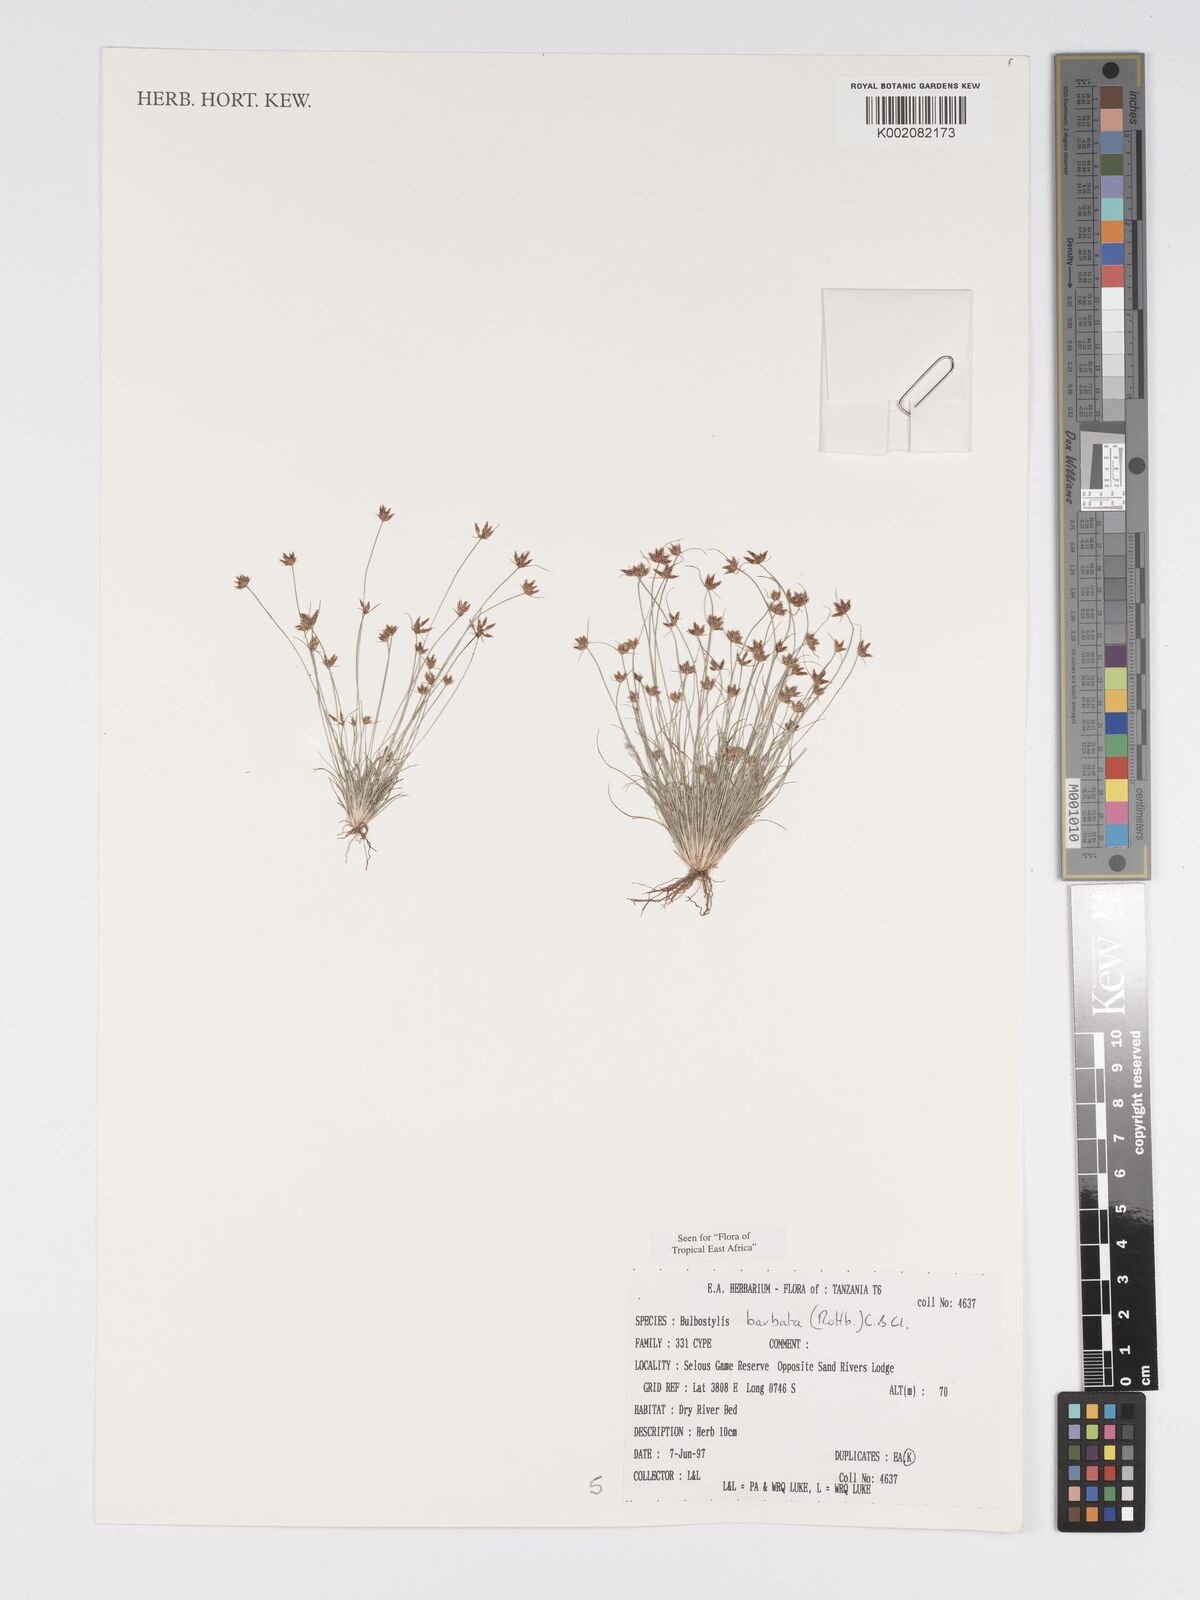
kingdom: Plantae
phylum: Tracheophyta
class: Liliopsida
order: Poales
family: Cyperaceae
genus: Bulbostylis
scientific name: Bulbostylis barbata
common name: Watergrass
